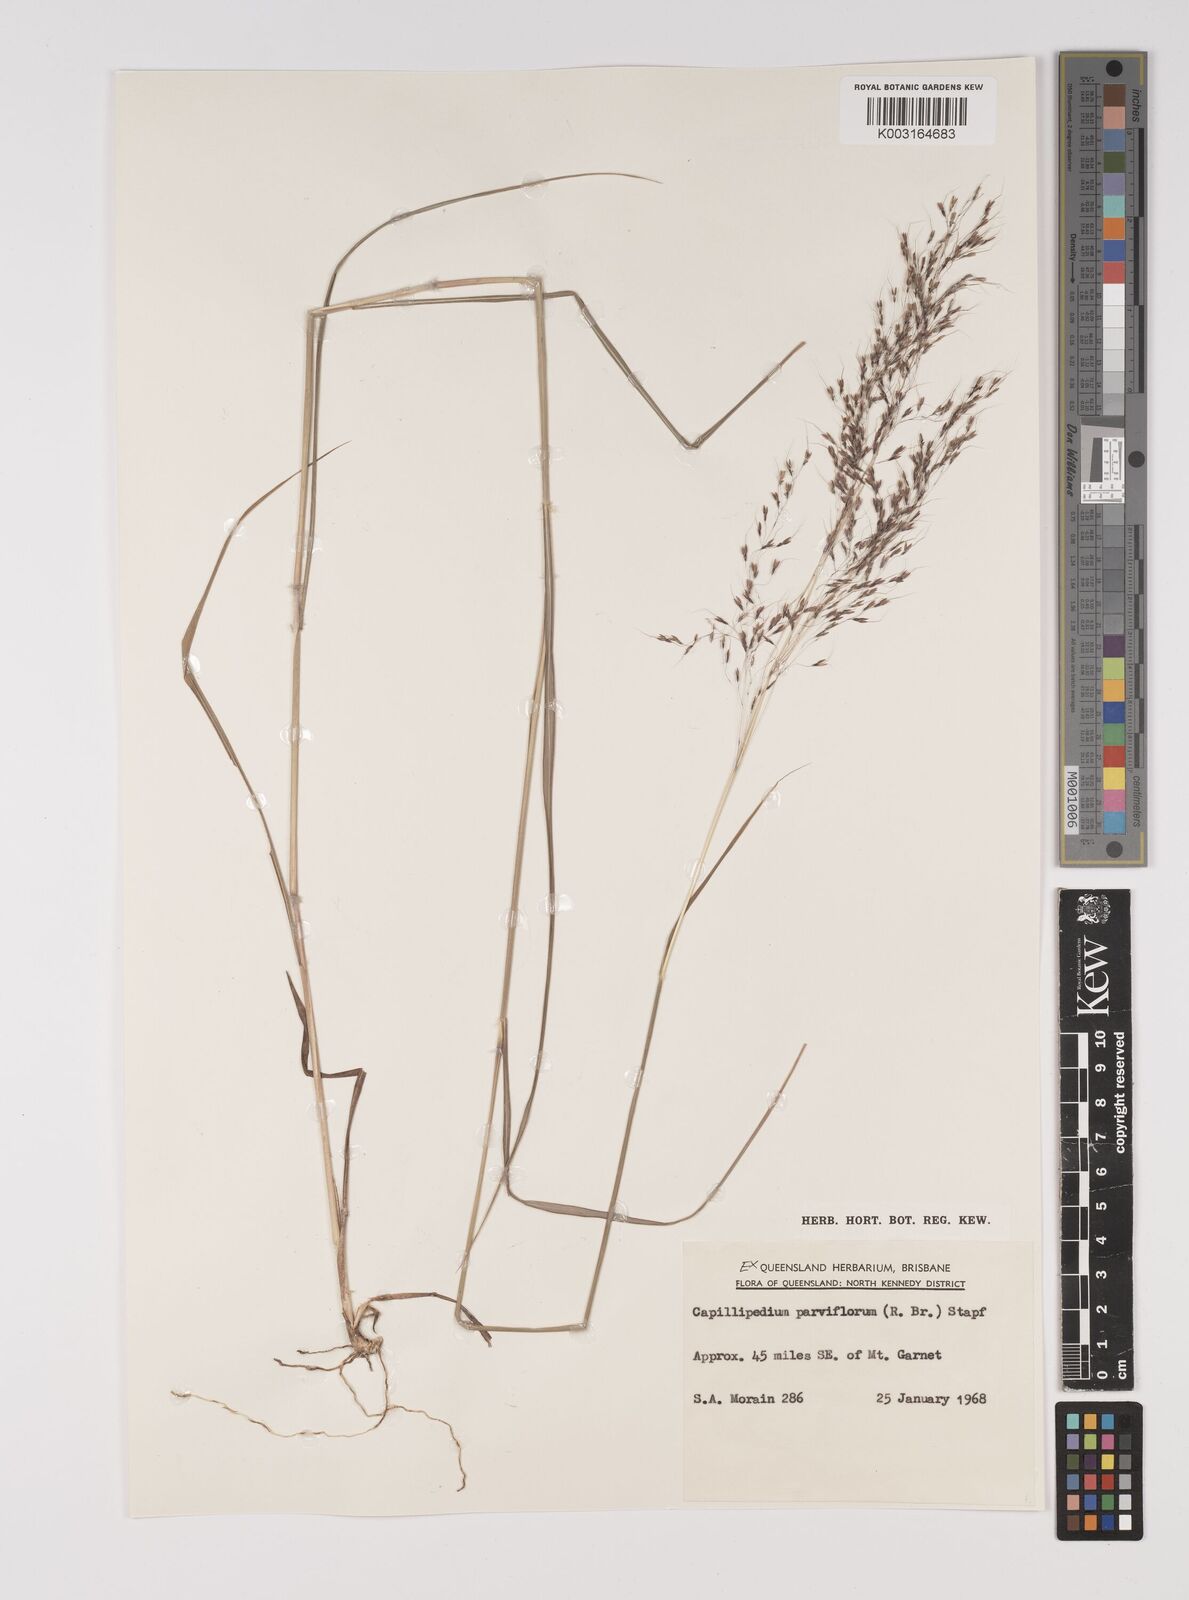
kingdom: Plantae
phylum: Tracheophyta
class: Liliopsida
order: Poales
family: Poaceae
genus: Capillipedium
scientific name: Capillipedium parviflorum
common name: Golden-beard
